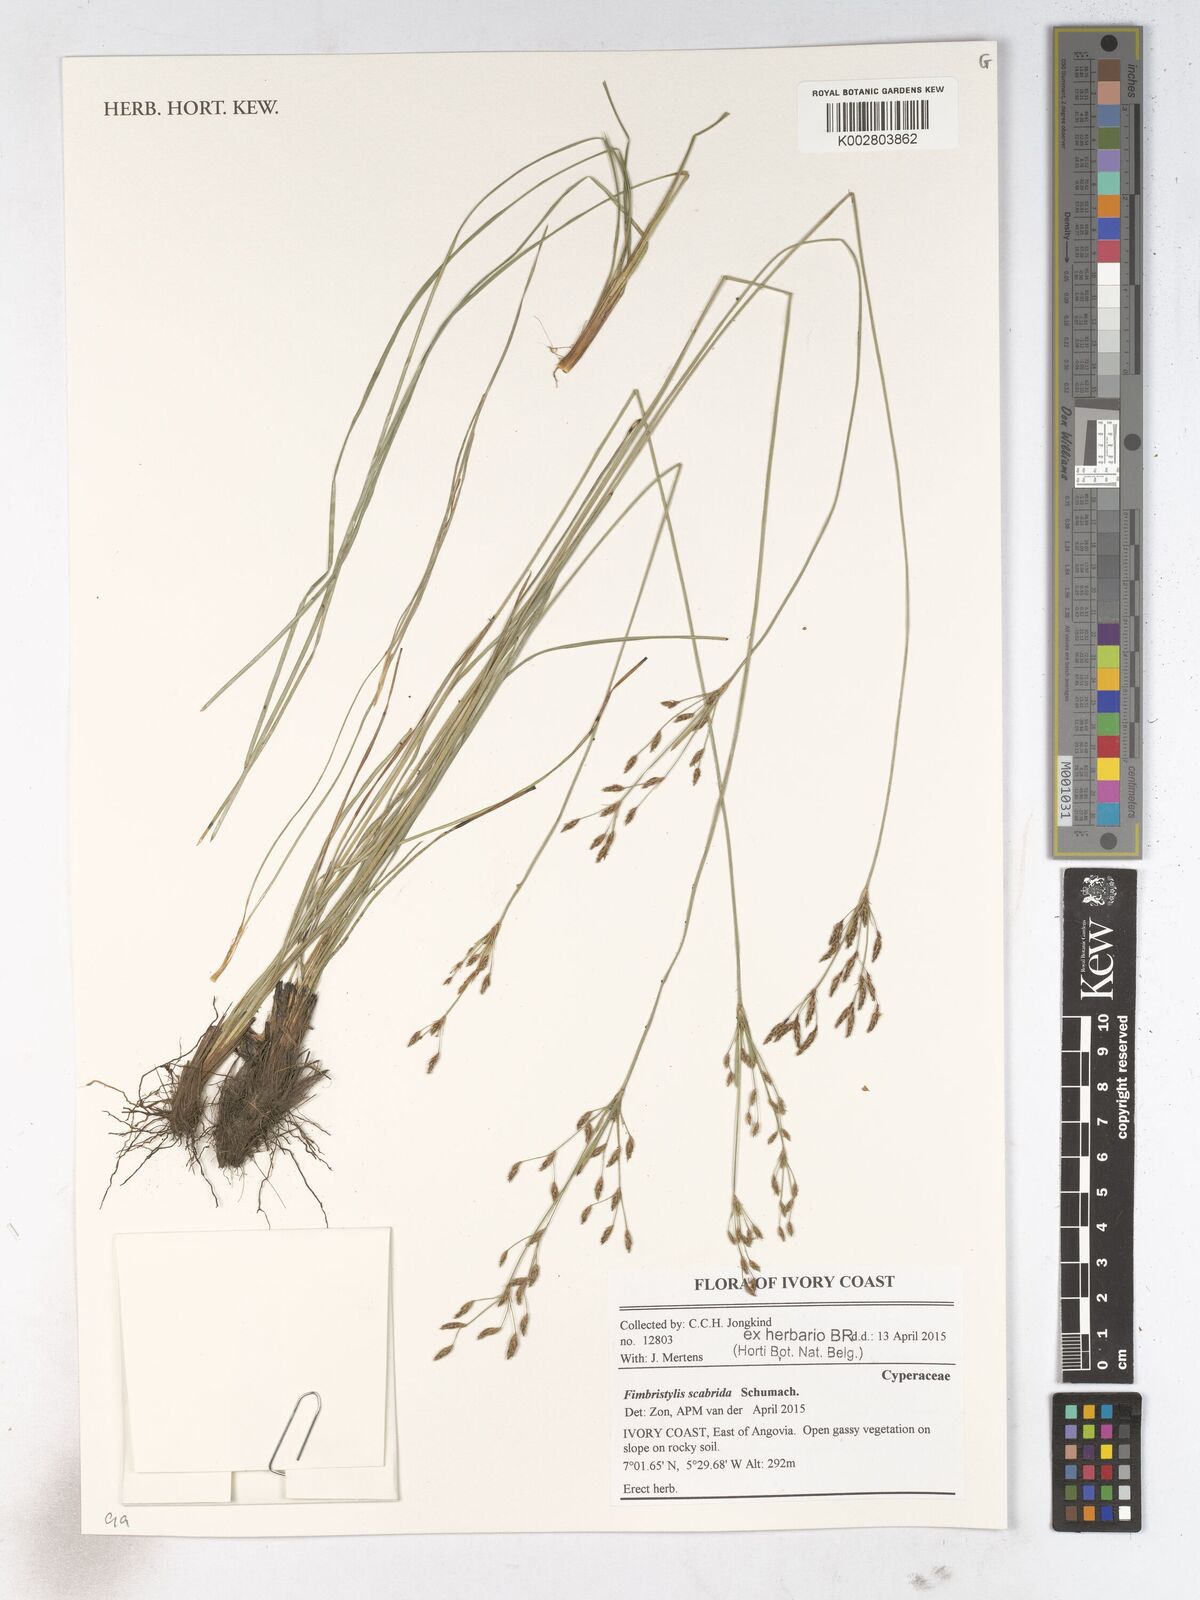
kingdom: Plantae
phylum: Tracheophyta
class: Liliopsida
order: Poales
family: Cyperaceae
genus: Fimbristylis
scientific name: Fimbristylis scabrida
